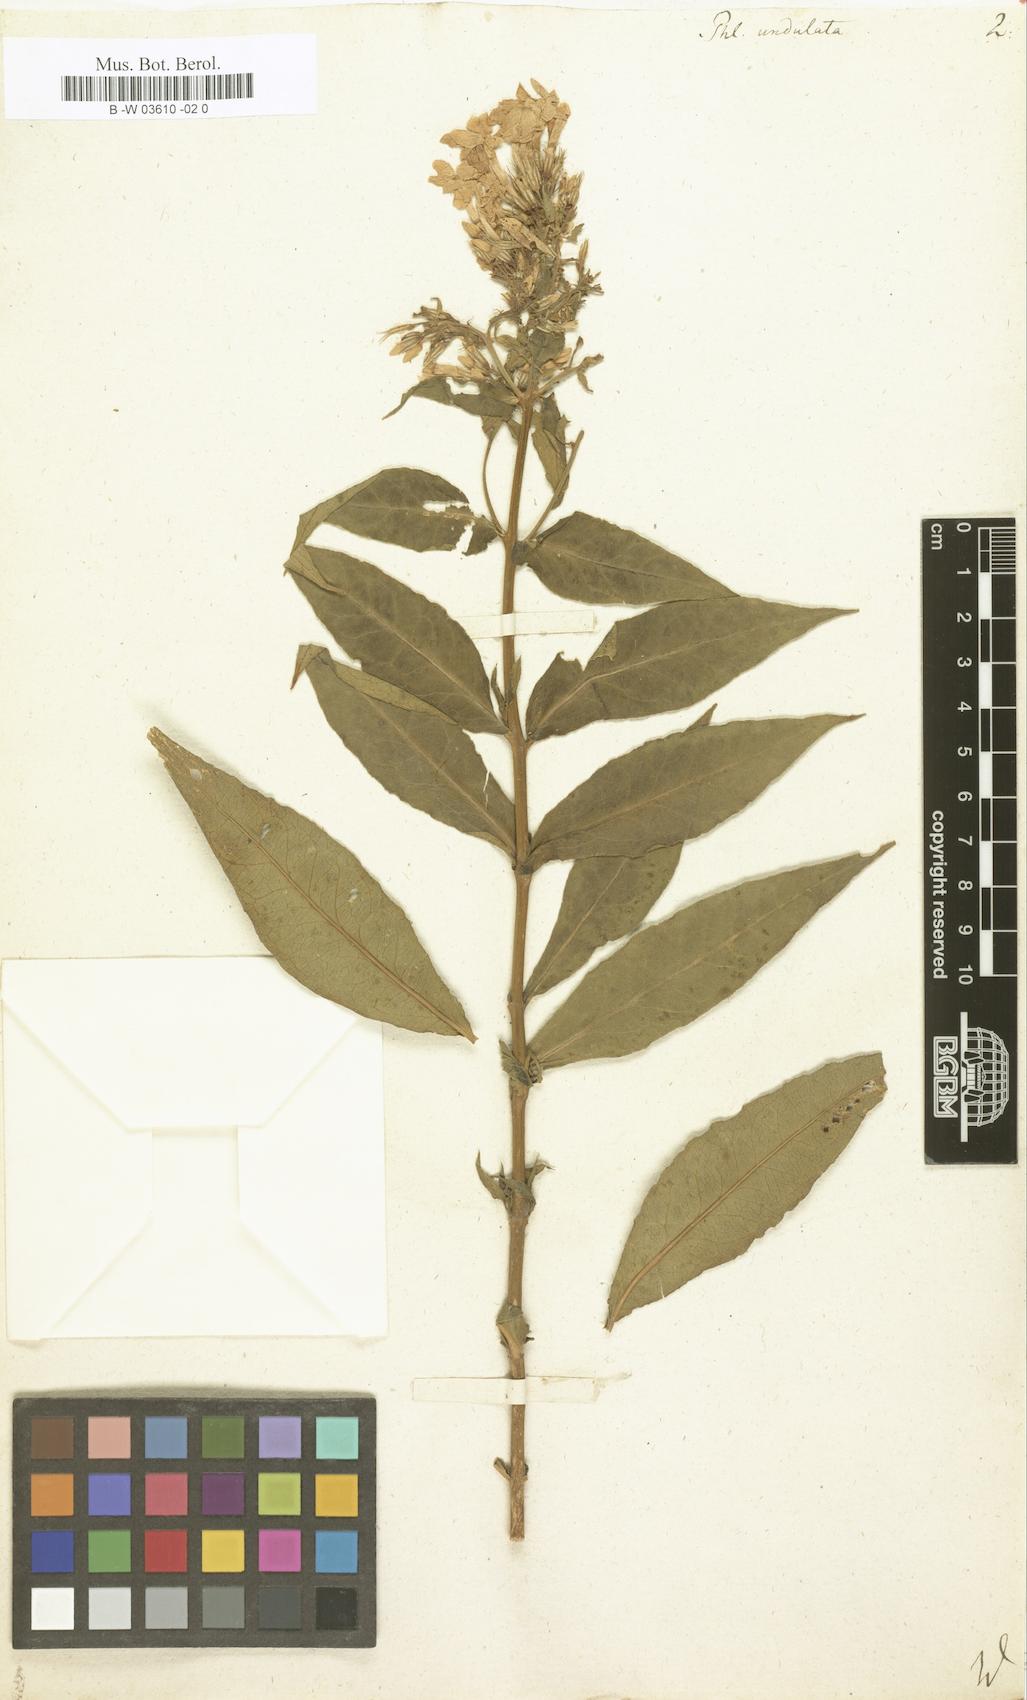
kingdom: Plantae
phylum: Tracheophyta
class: Magnoliopsida
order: Ericales
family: Polemoniaceae
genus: Phlox
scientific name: Phlox paniculata
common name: Fall phlox
